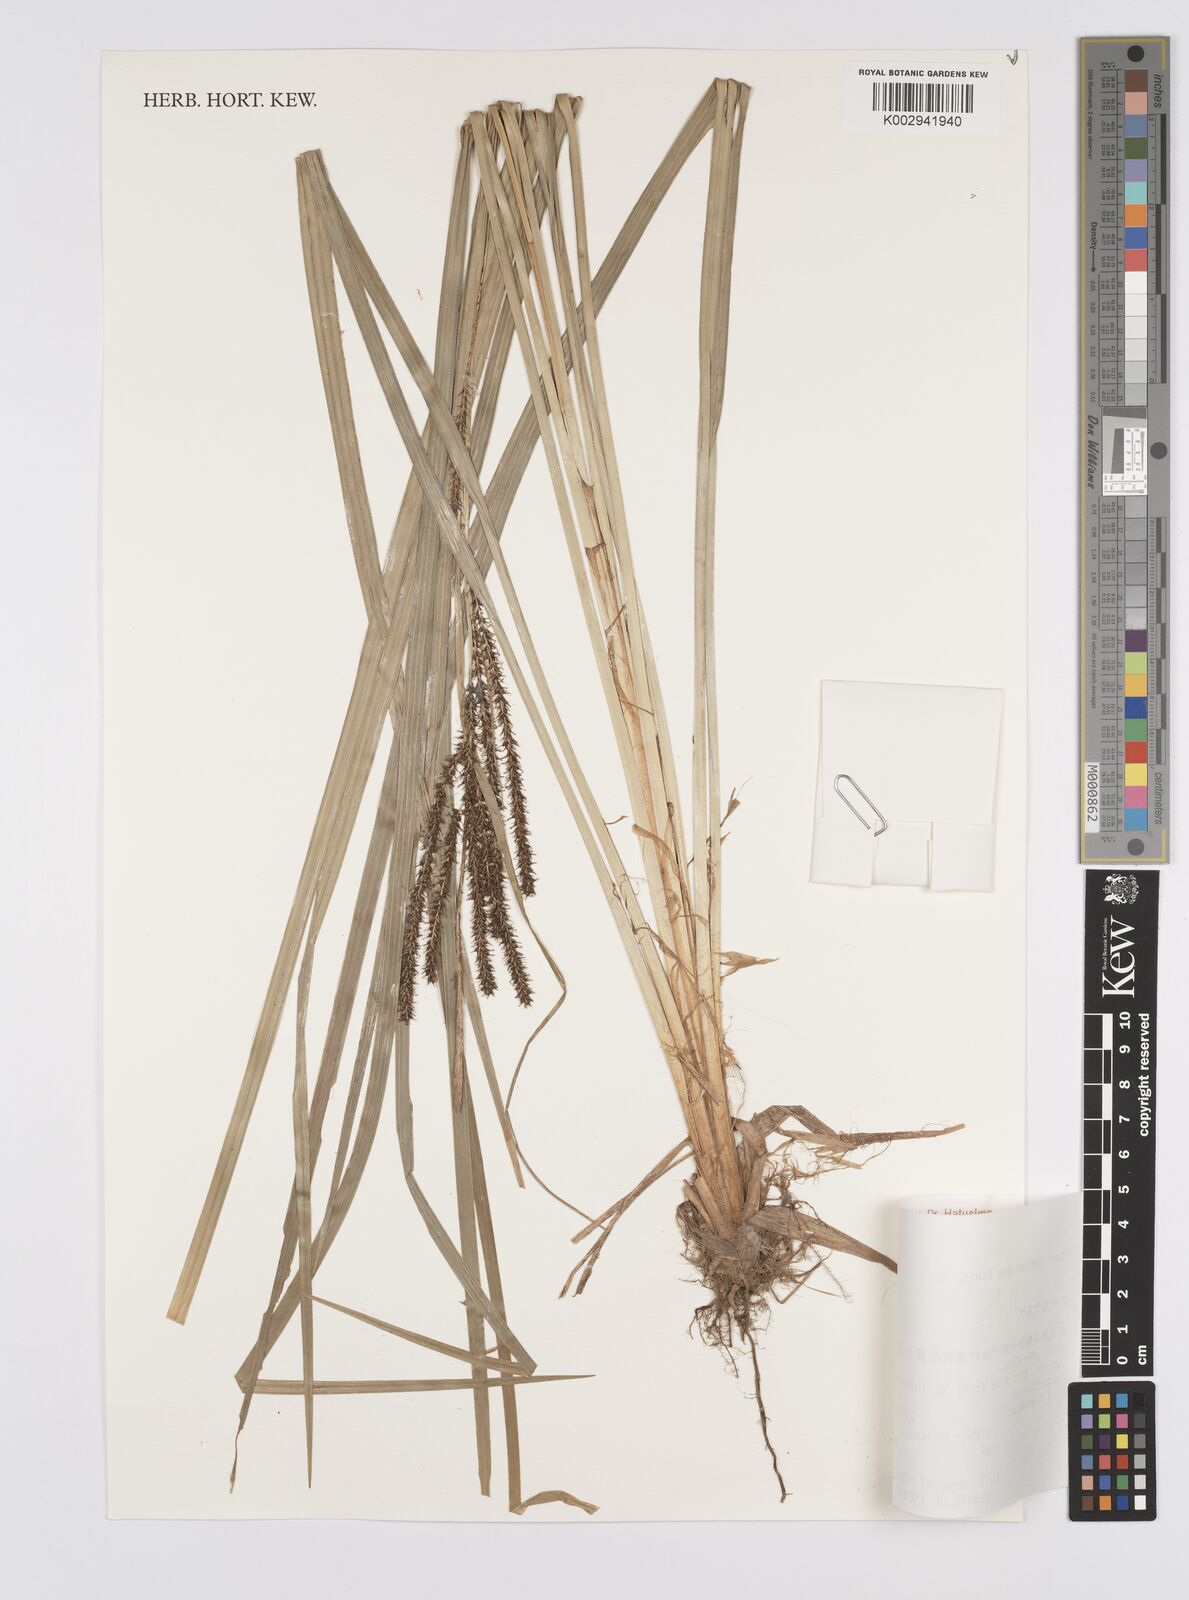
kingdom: Plantae
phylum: Tracheophyta
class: Liliopsida
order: Poales
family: Cyperaceae
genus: Carex
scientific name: Carex nemostachys
